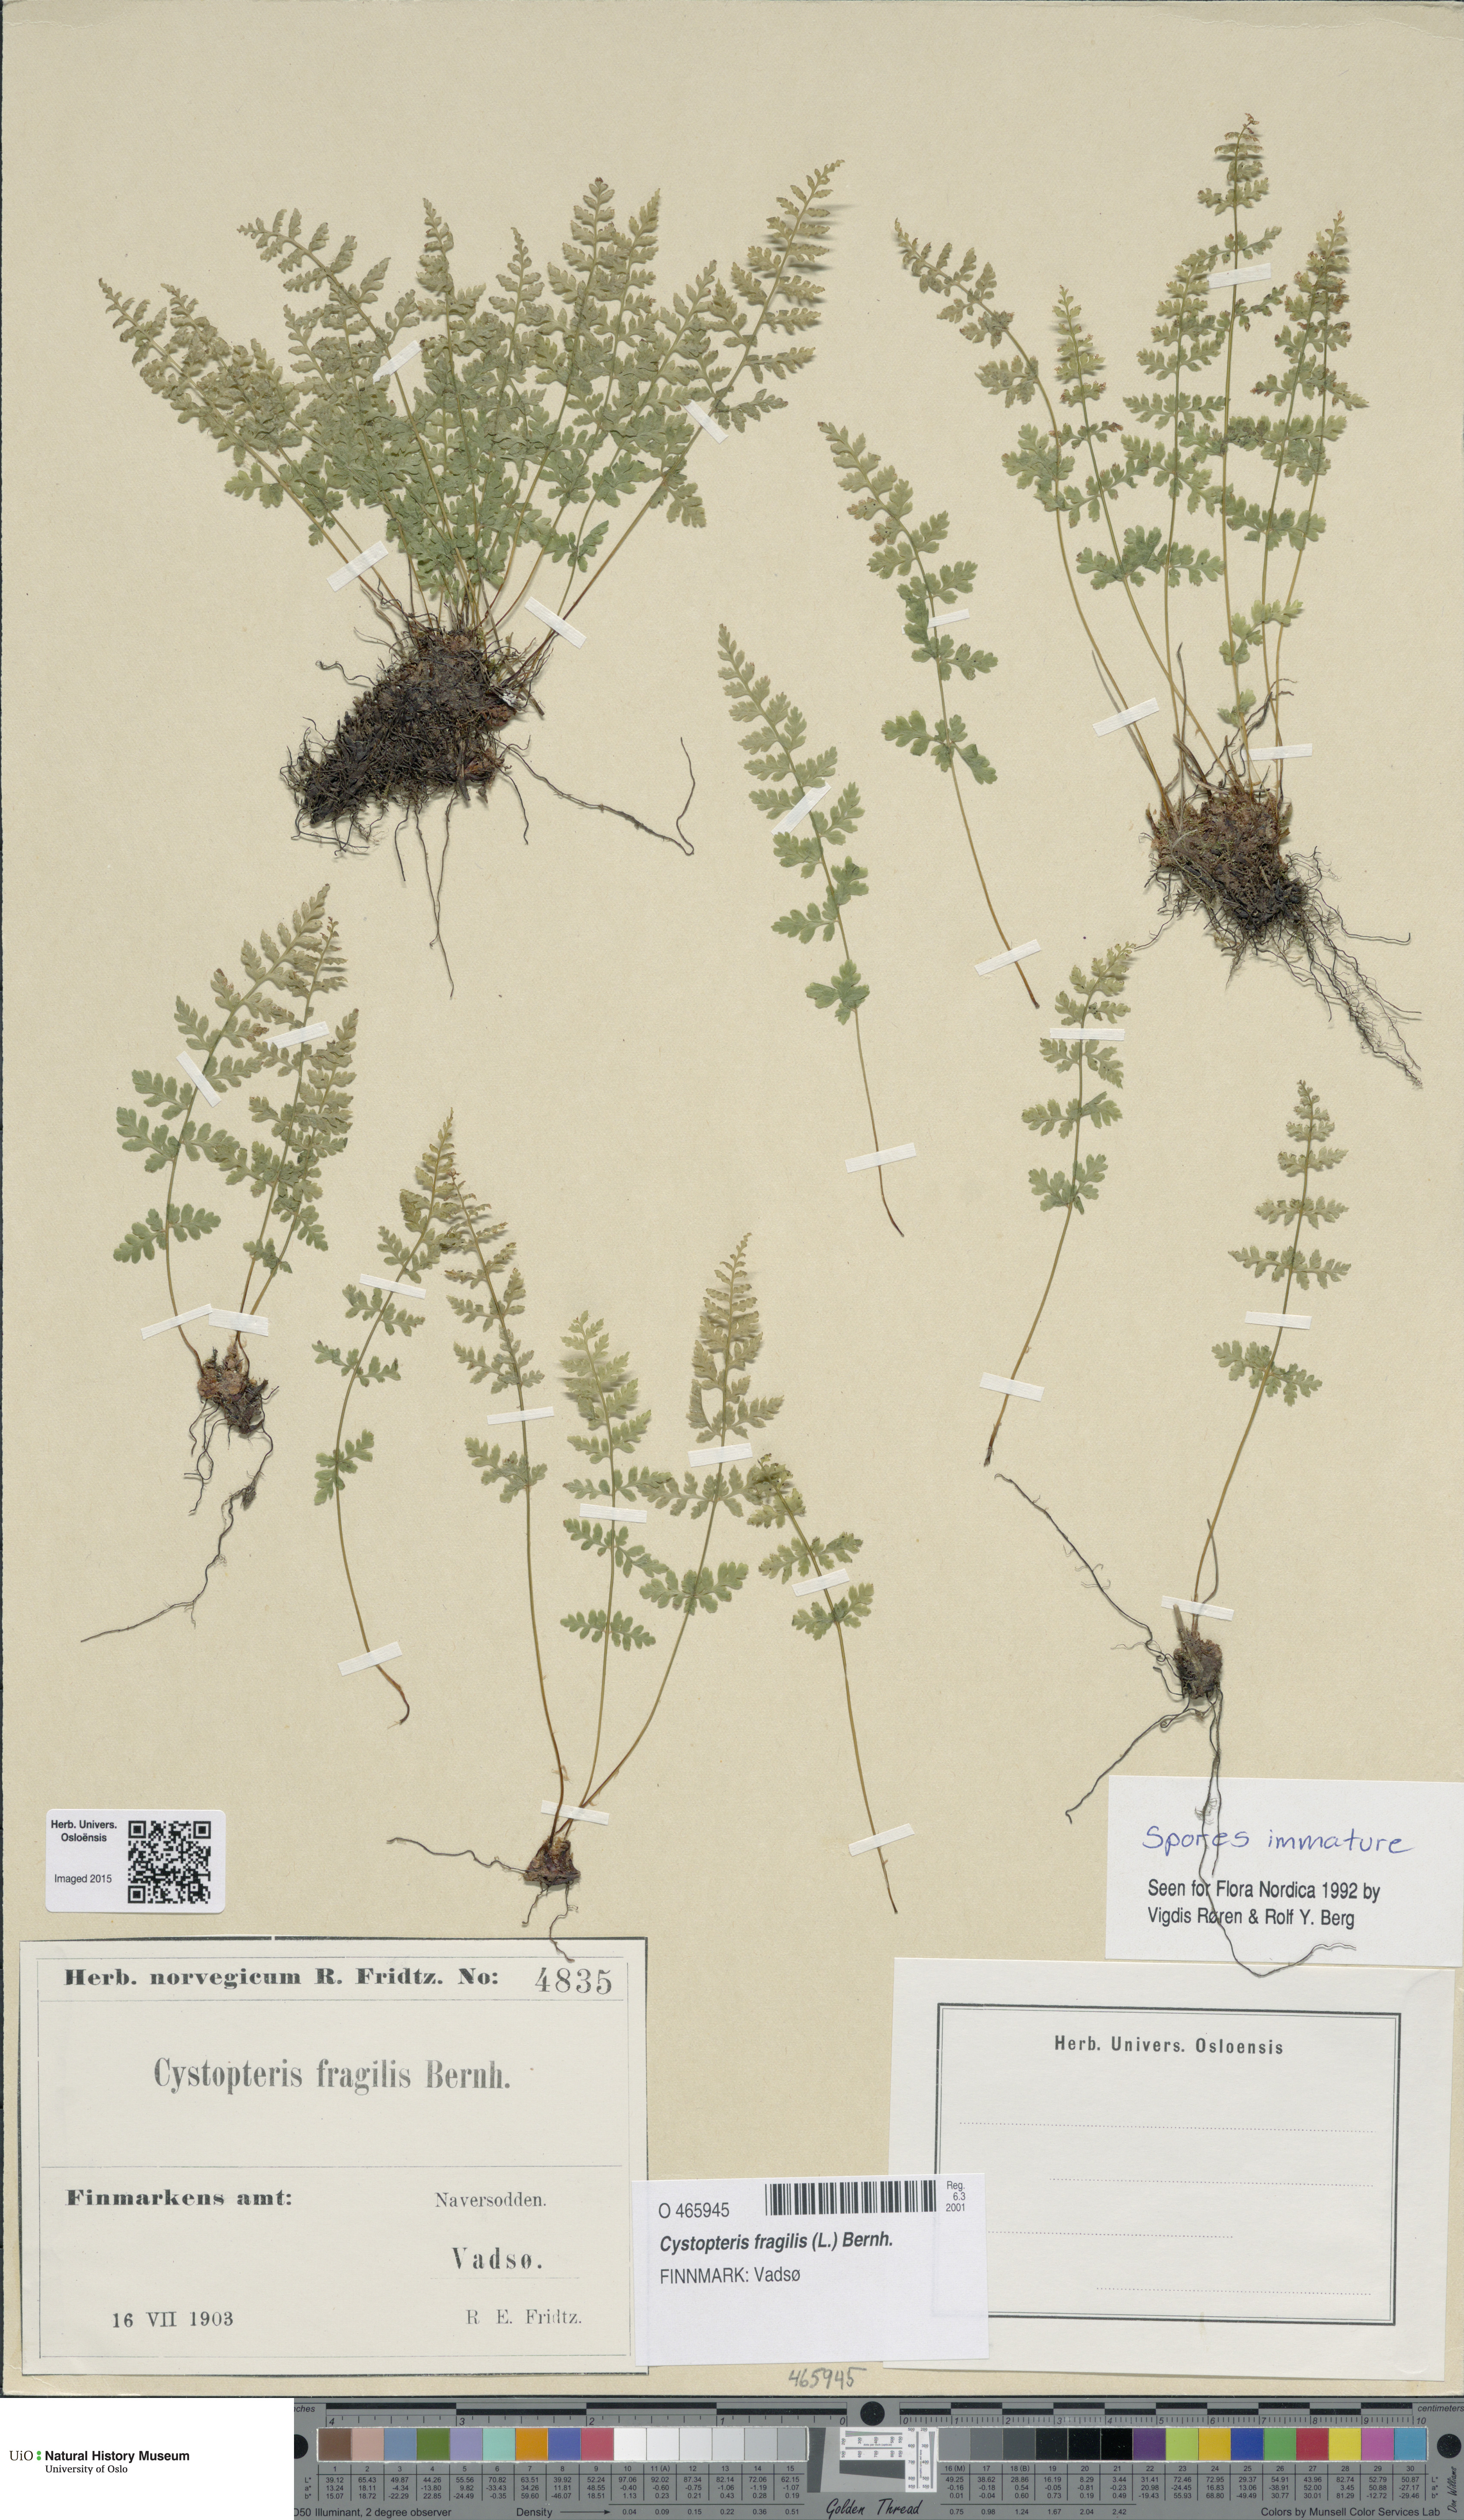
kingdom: Plantae
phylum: Tracheophyta
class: Polypodiopsida
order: Polypodiales
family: Cystopteridaceae
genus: Cystopteris
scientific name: Cystopteris fragilis
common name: Brittle bladder fern
